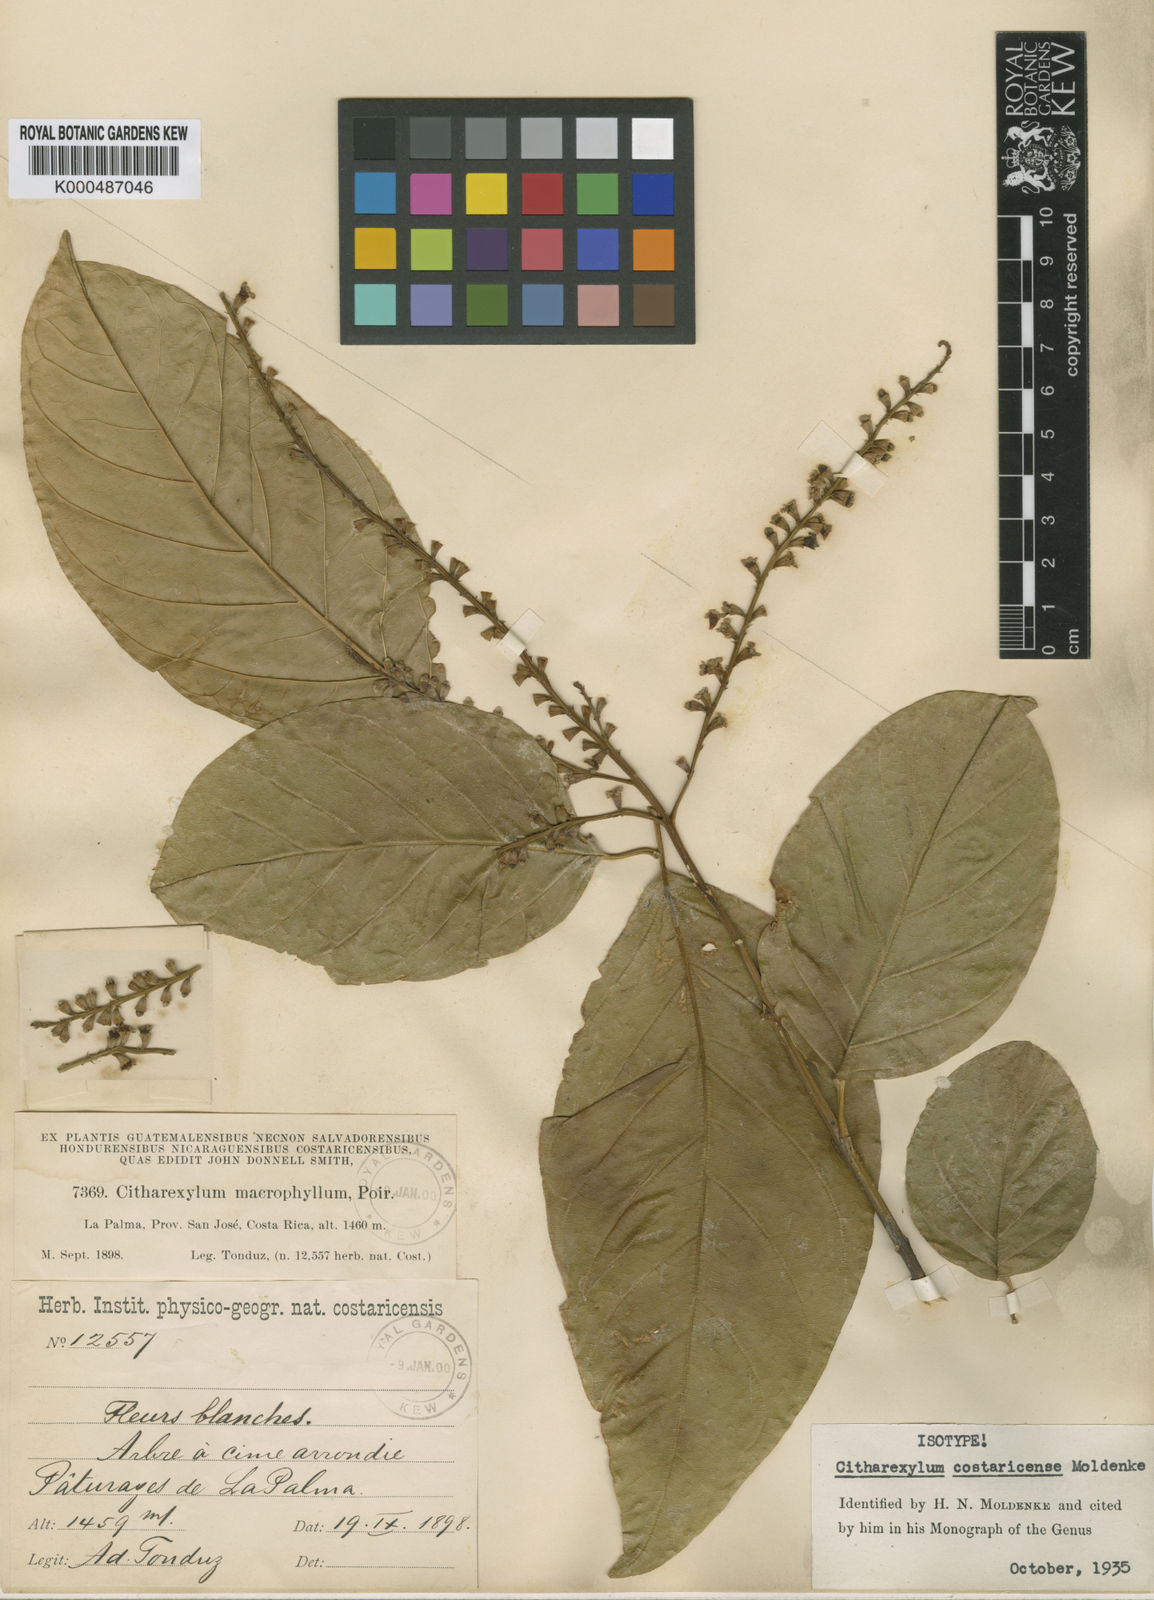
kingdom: Plantae
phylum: Tracheophyta
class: Magnoliopsida
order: Lamiales
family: Verbenaceae
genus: Citharexylum
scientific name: Citharexylum costaricense
